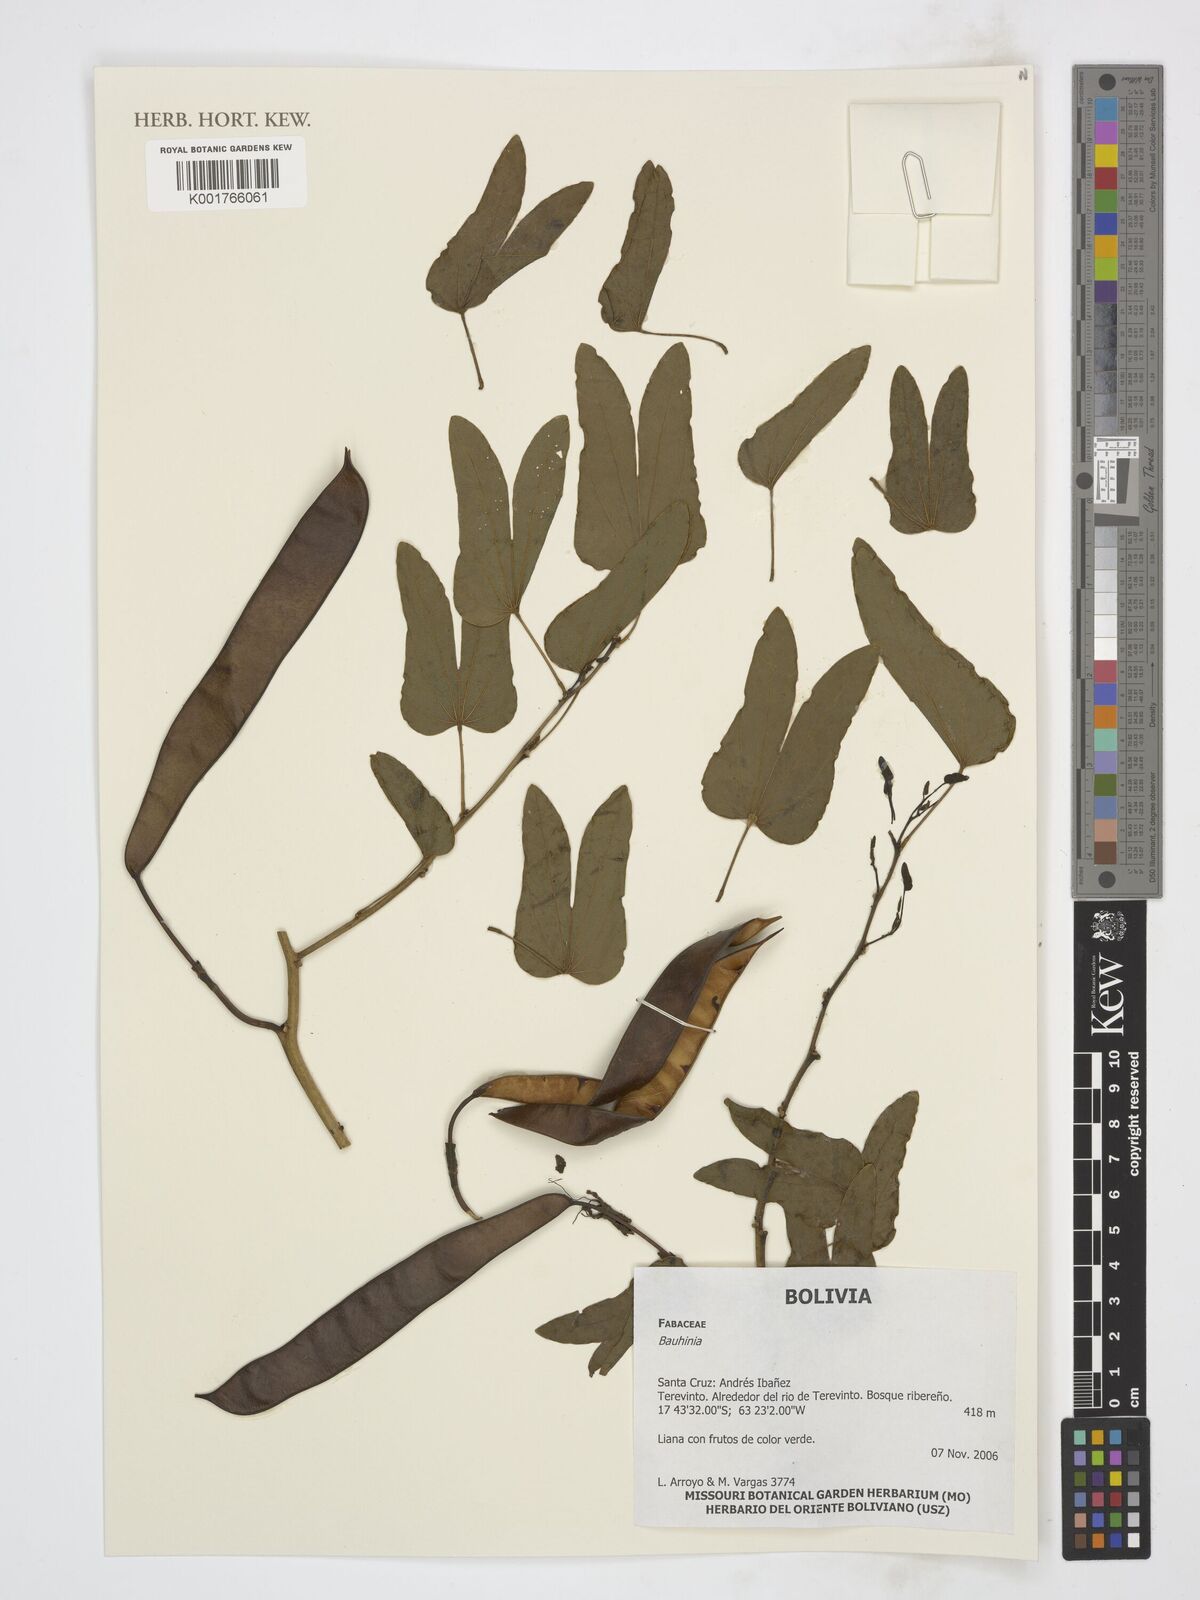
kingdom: Plantae
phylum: Tracheophyta
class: Magnoliopsida
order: Fabales
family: Fabaceae
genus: Bauhinia
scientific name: Bauhinia
